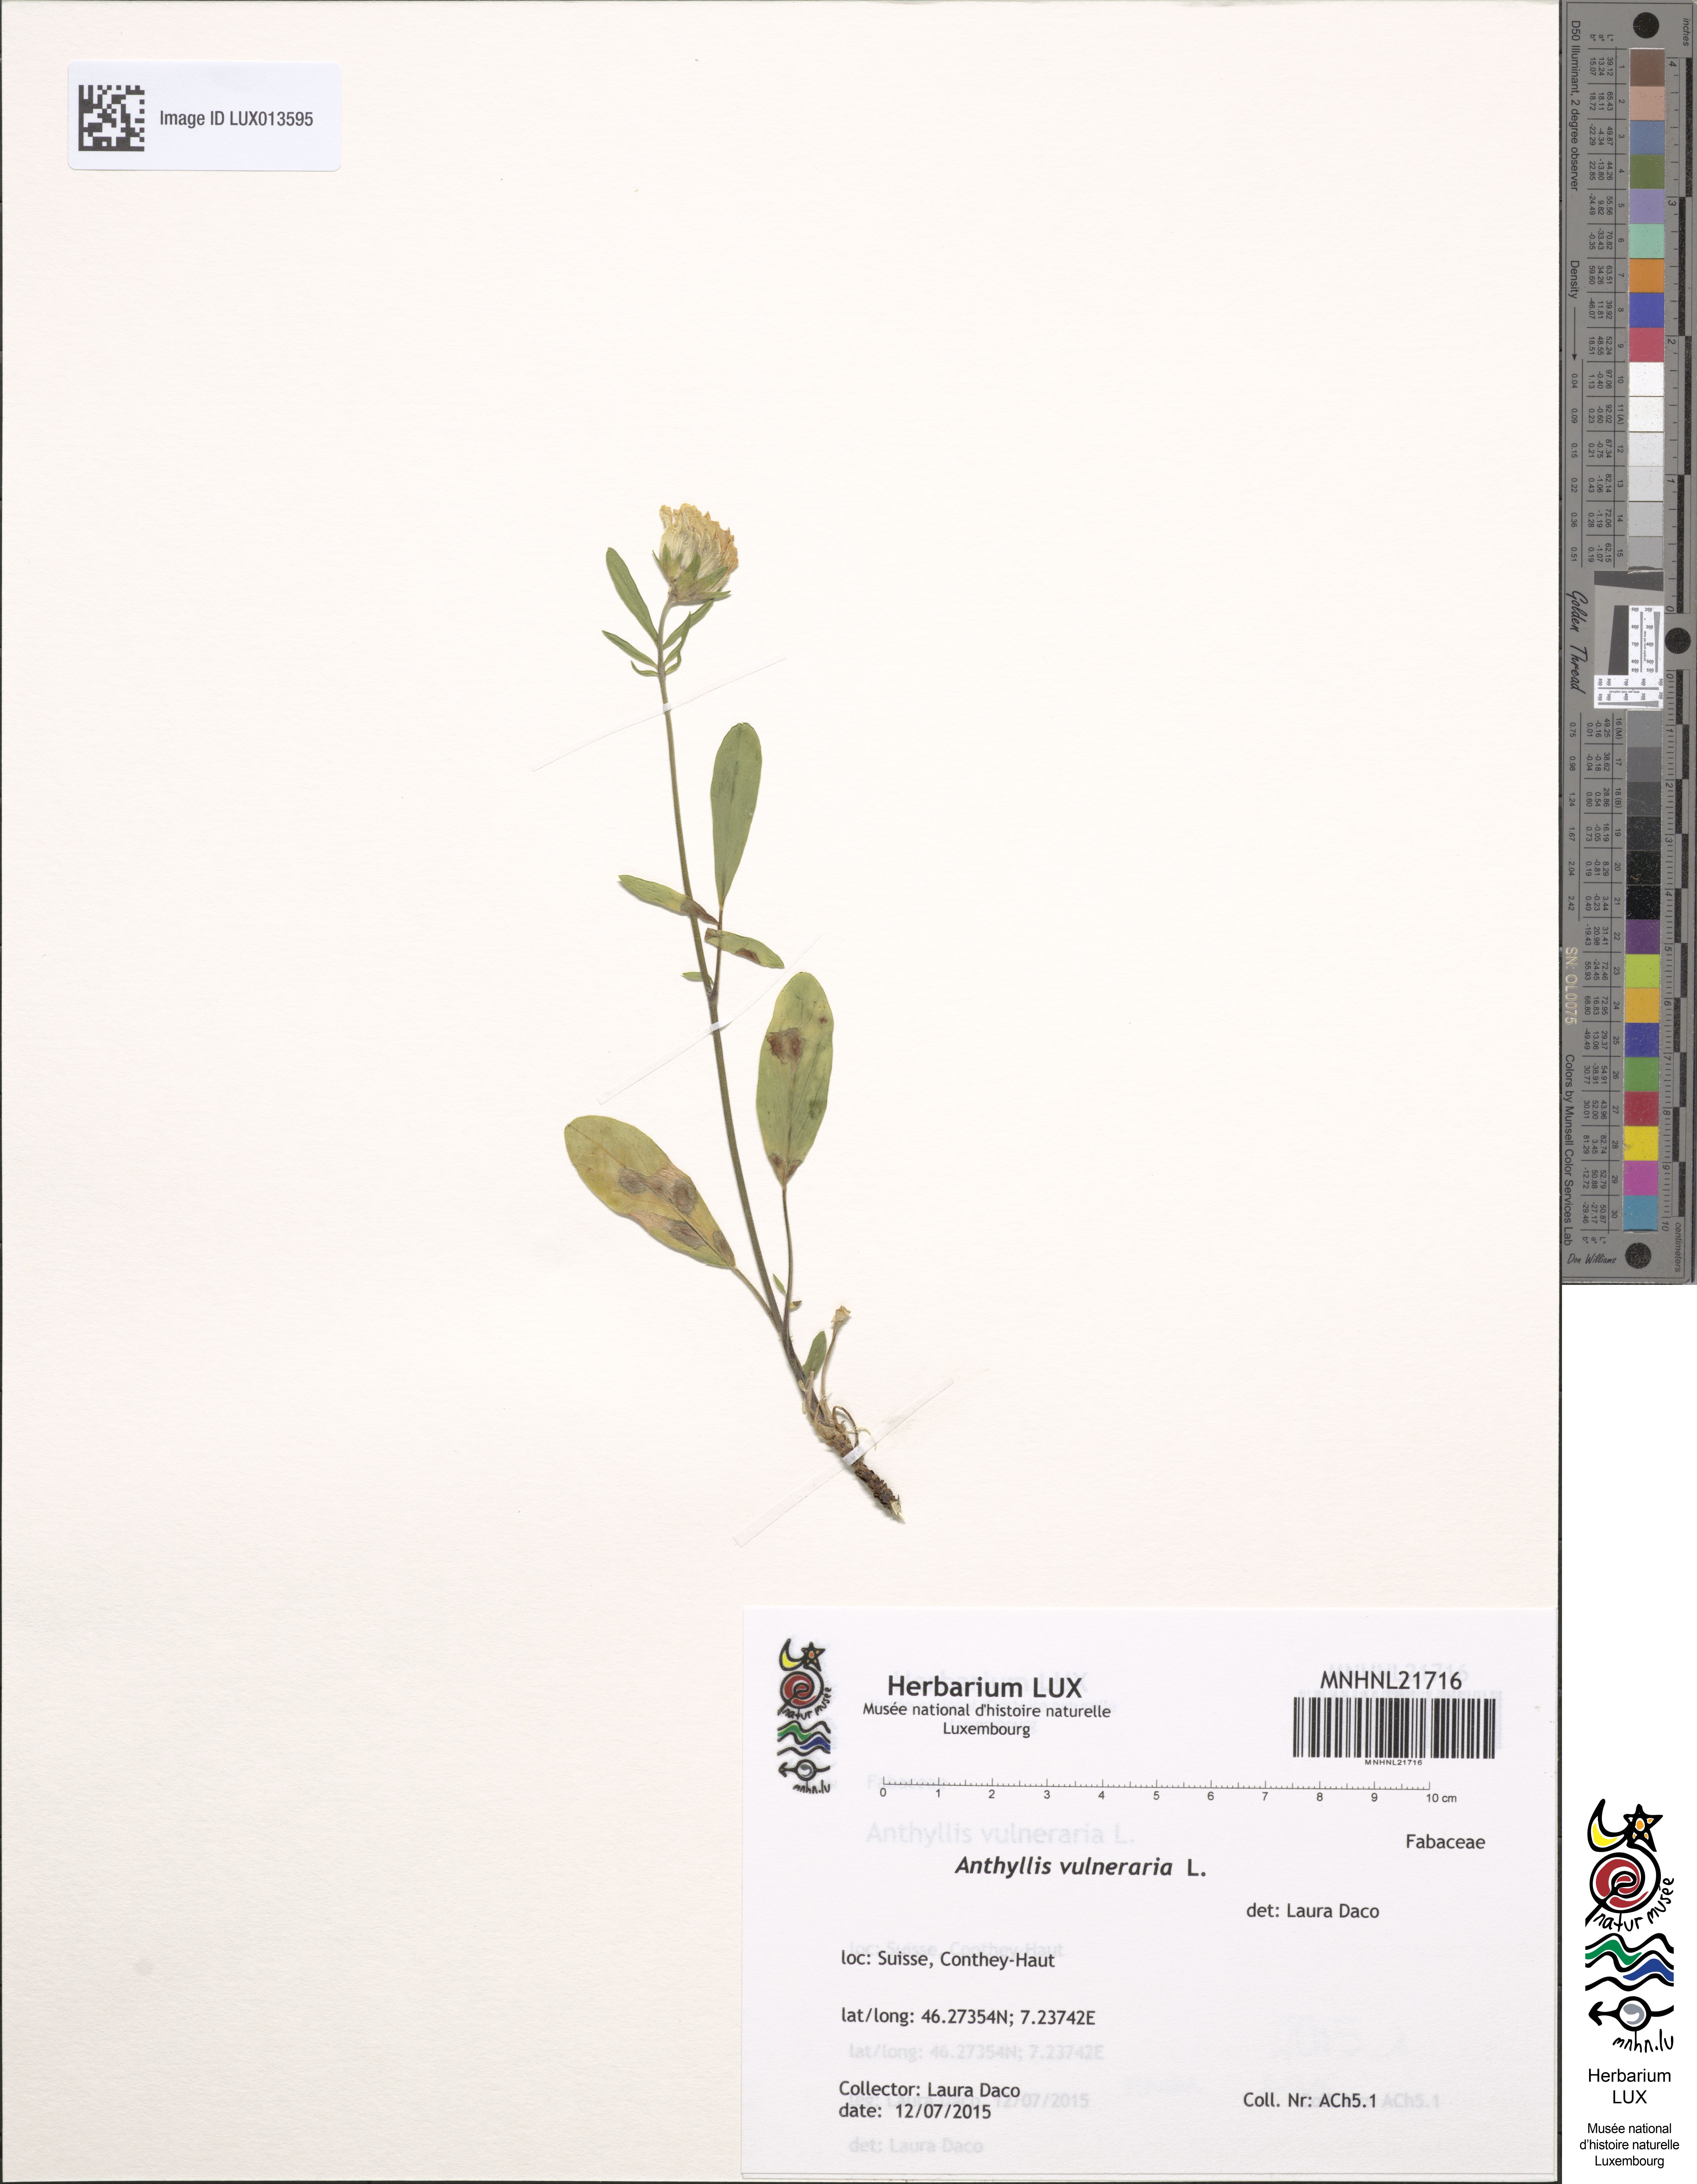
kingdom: Plantae
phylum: Tracheophyta
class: Magnoliopsida
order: Fabales
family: Fabaceae
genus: Anthyllis
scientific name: Anthyllis vulneraria
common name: Kidney vetch
